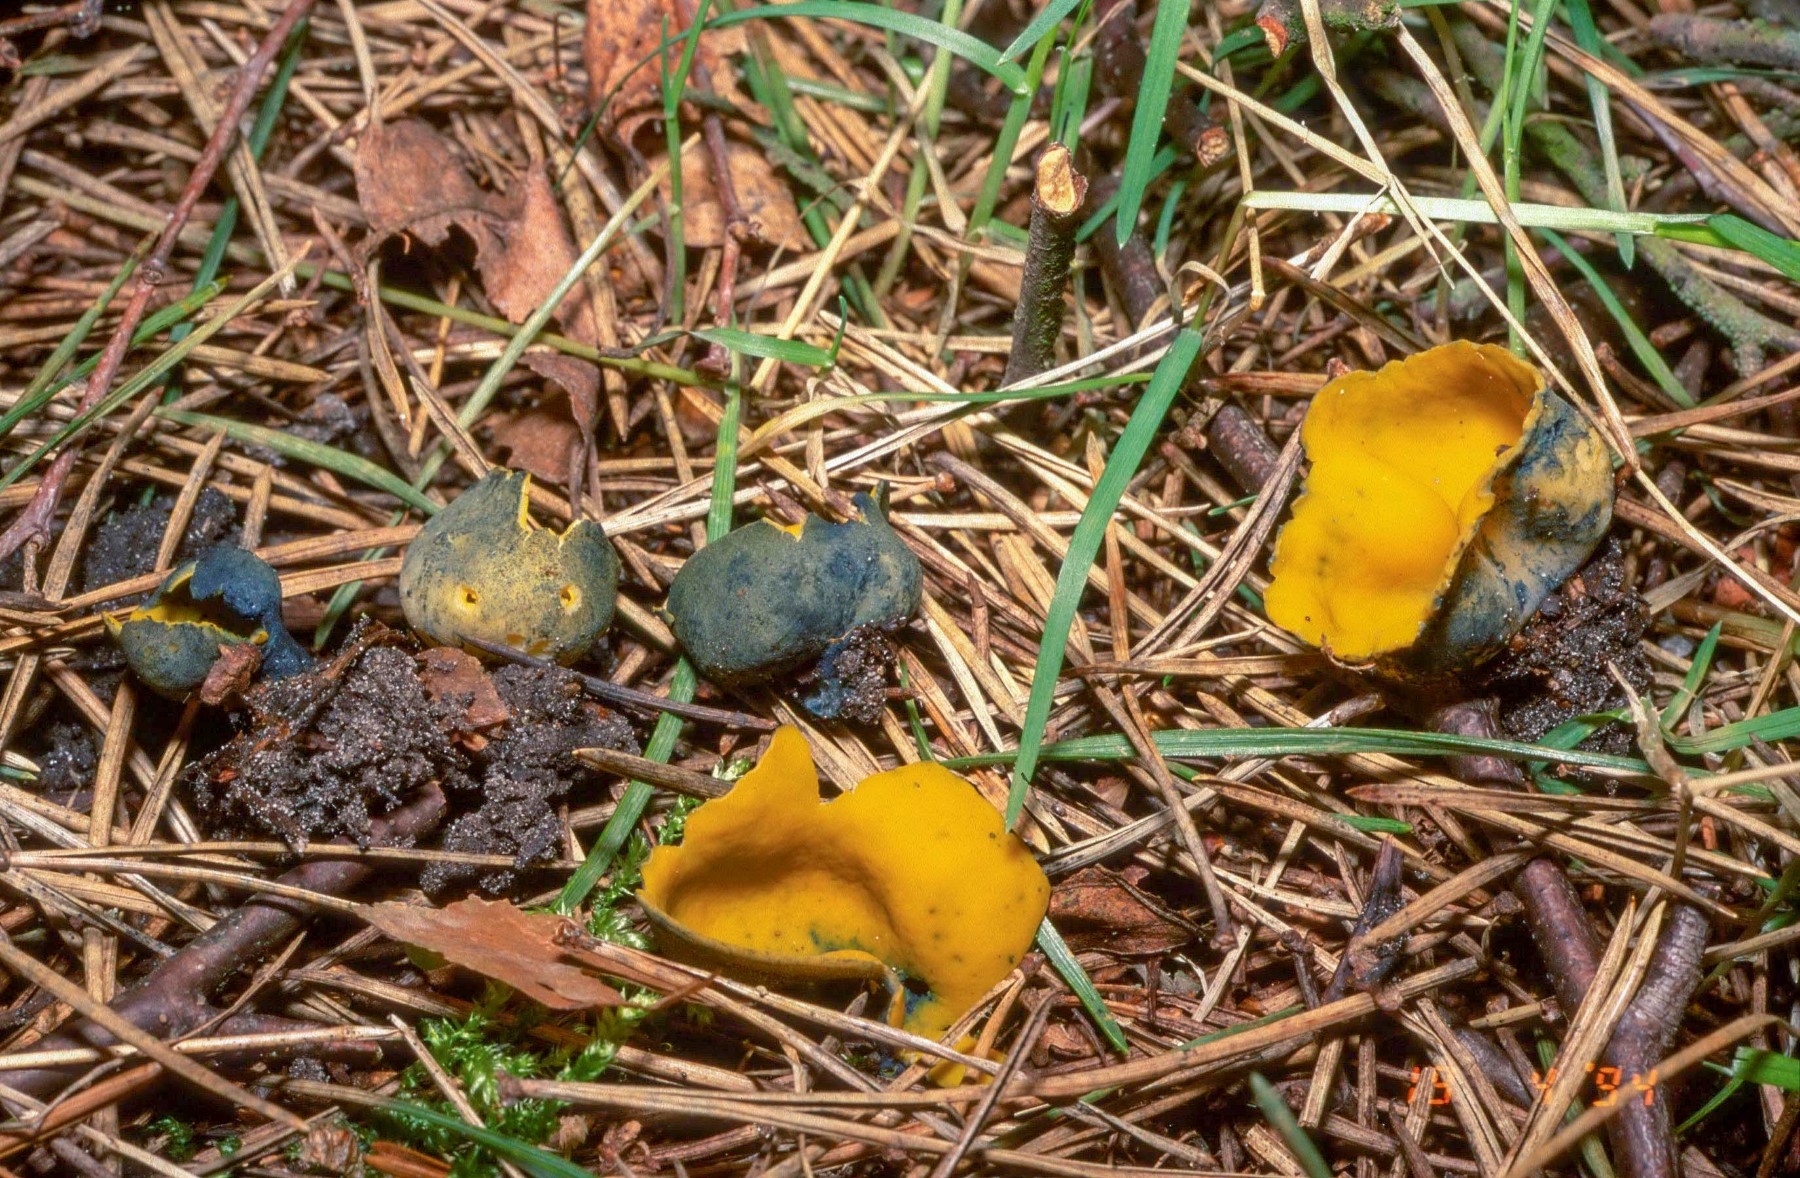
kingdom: Fungi
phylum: Ascomycota
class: Pezizomycetes
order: Pezizales
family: Caloscyphaceae
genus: Caloscypha
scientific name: Caloscypha fulgens
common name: jadebæger
